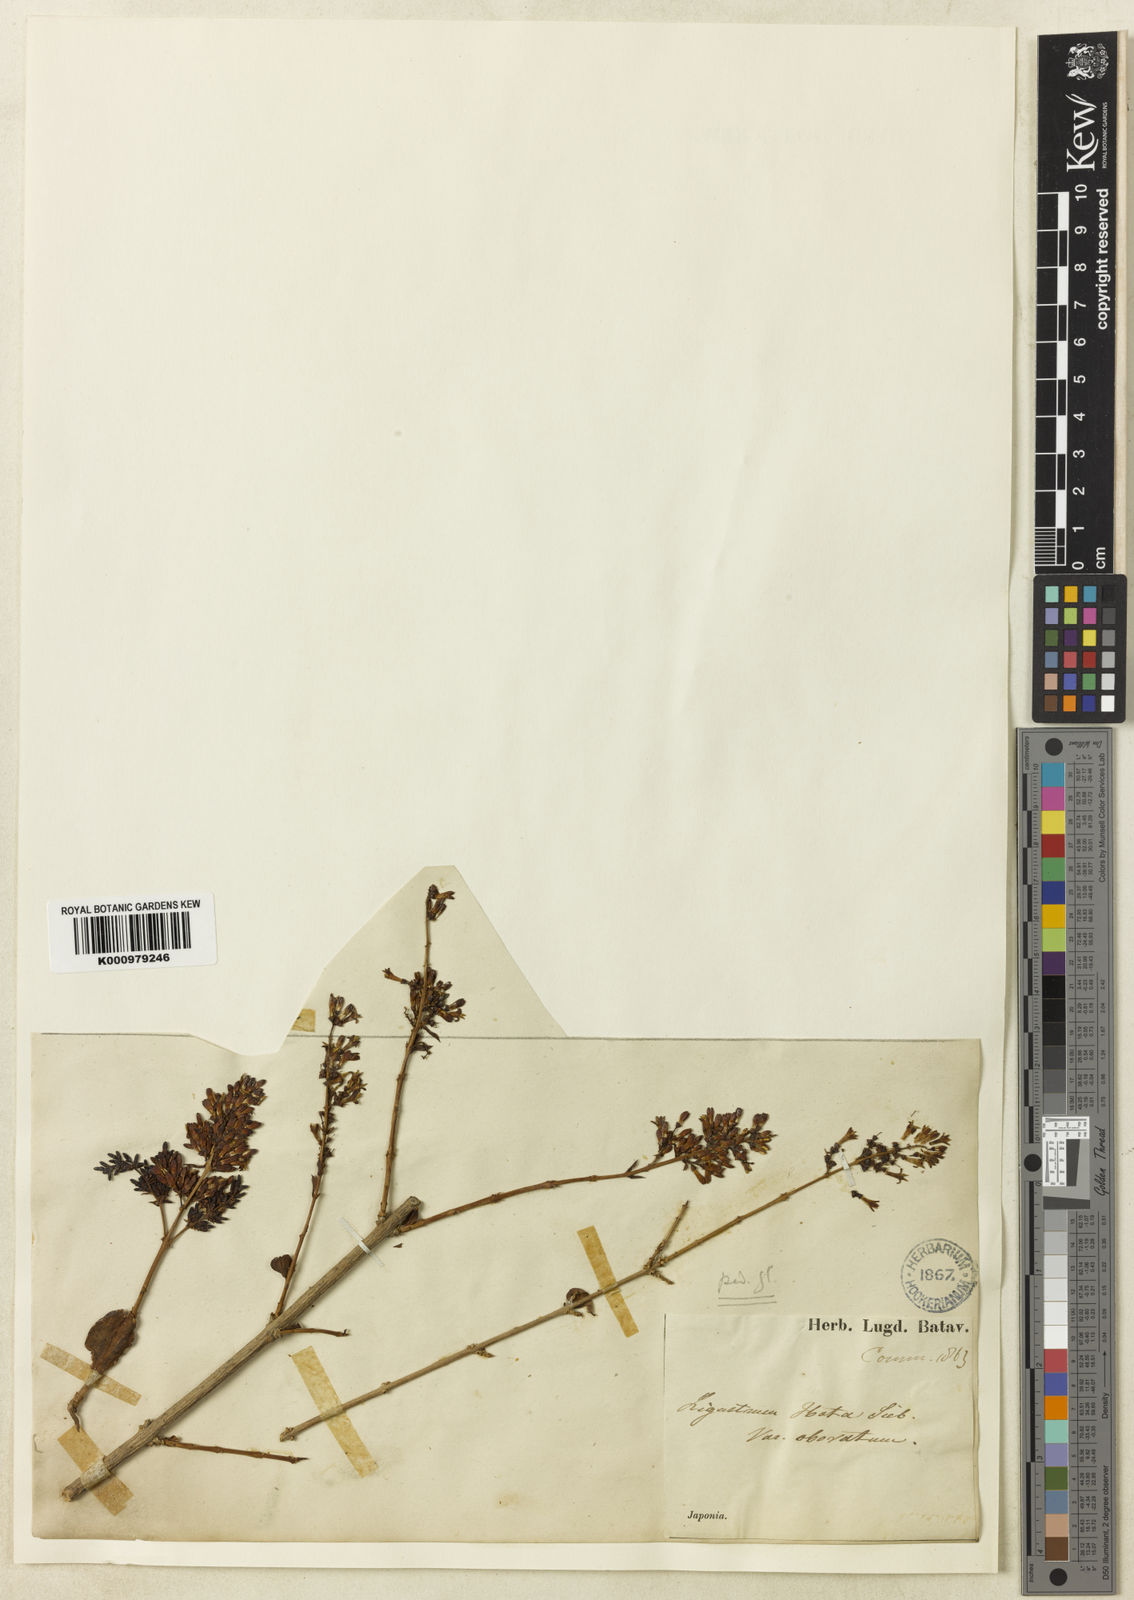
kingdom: Plantae
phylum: Tracheophyta
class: Magnoliopsida
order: Lamiales
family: Oleaceae
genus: Ligustrum
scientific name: Ligustrum tschonoskii
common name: Tschonosky privet
